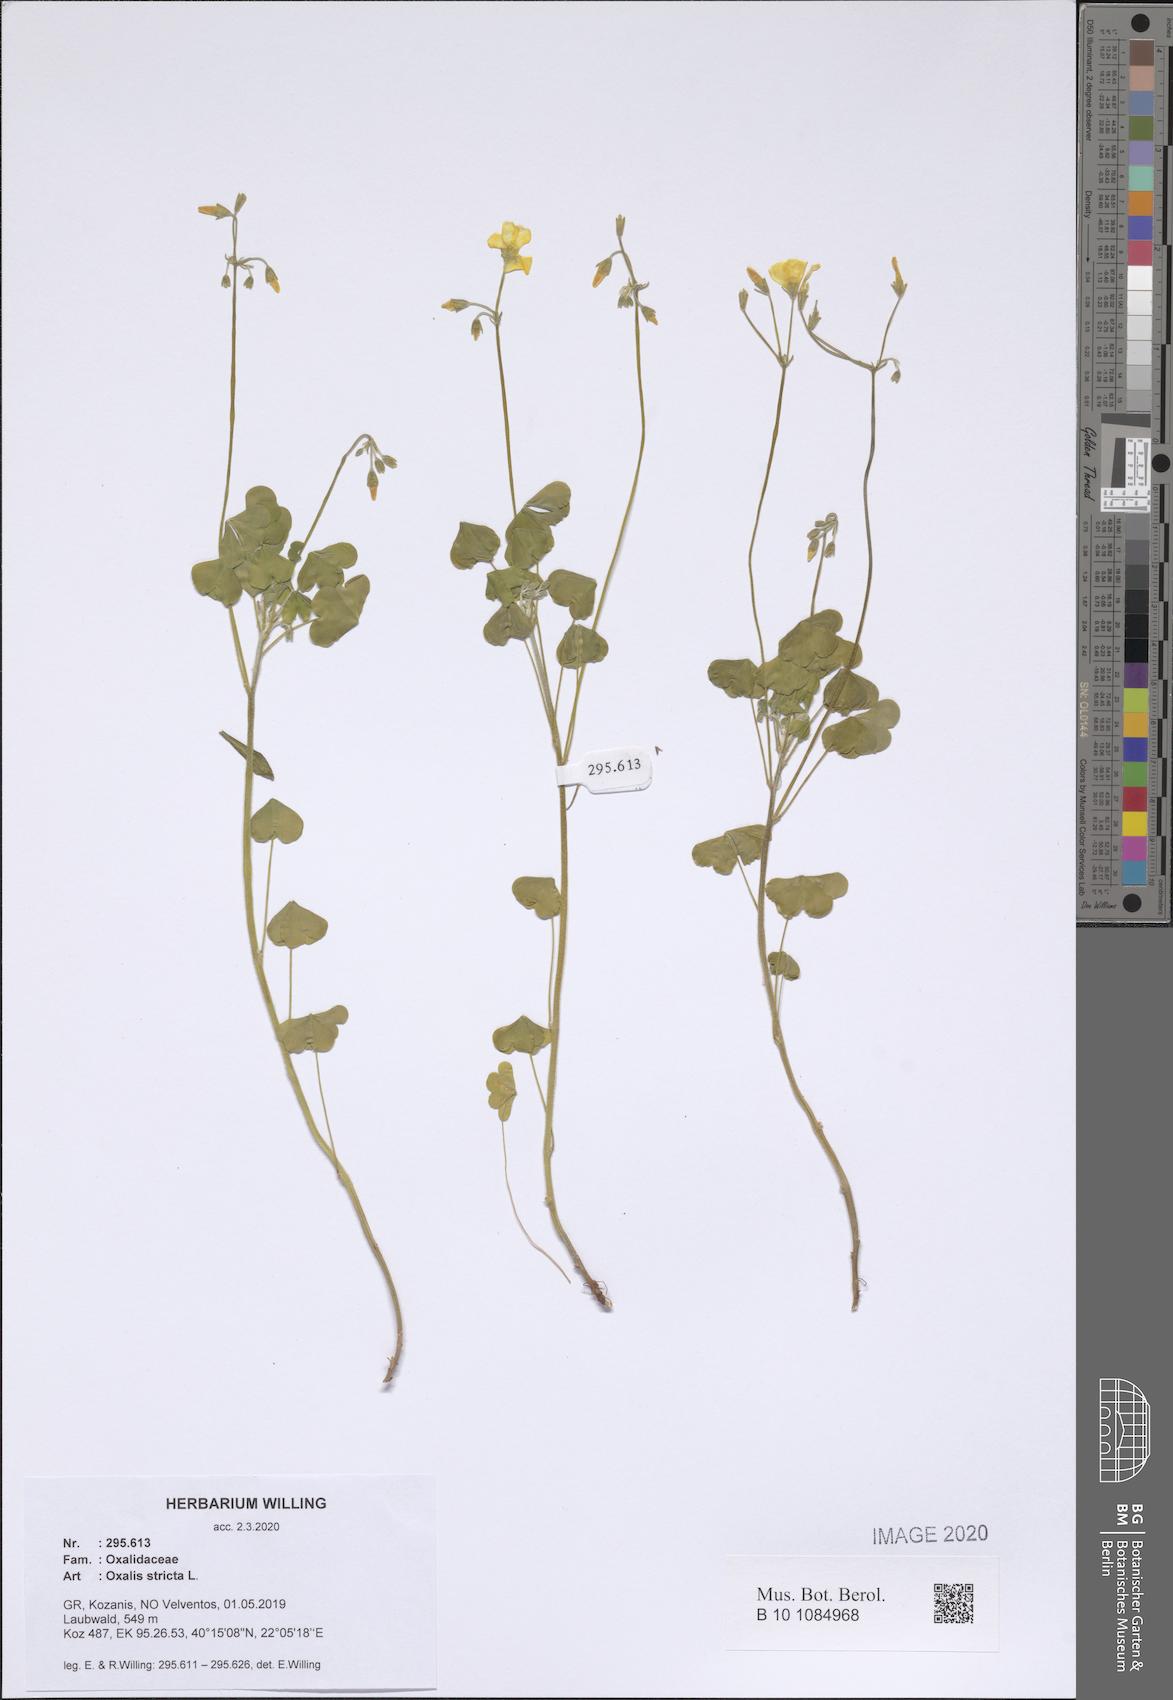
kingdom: Plantae
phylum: Tracheophyta
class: Magnoliopsida
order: Oxalidales
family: Oxalidaceae
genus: Oxalis
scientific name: Oxalis stricta
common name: Upright yellow-sorrel
